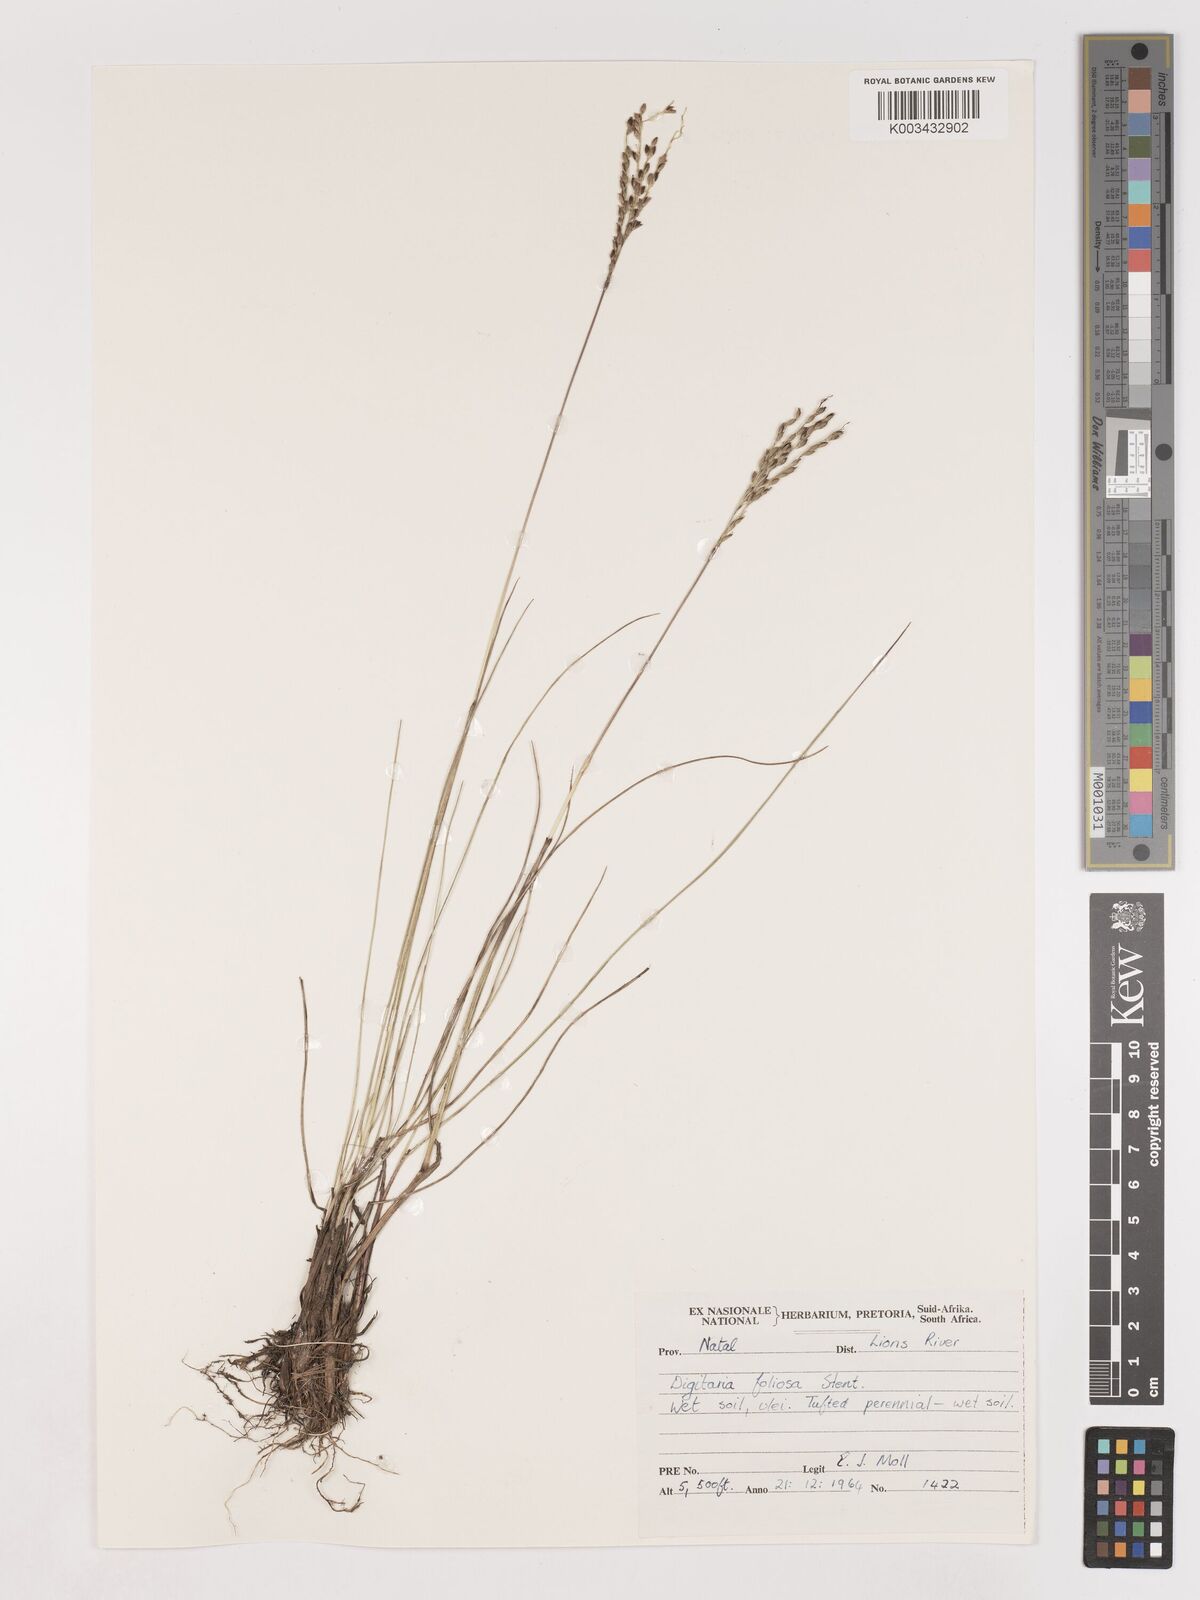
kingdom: Plantae
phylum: Tracheophyta
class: Liliopsida
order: Poales
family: Poaceae
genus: Digitaria
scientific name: Digitaria setifolia
